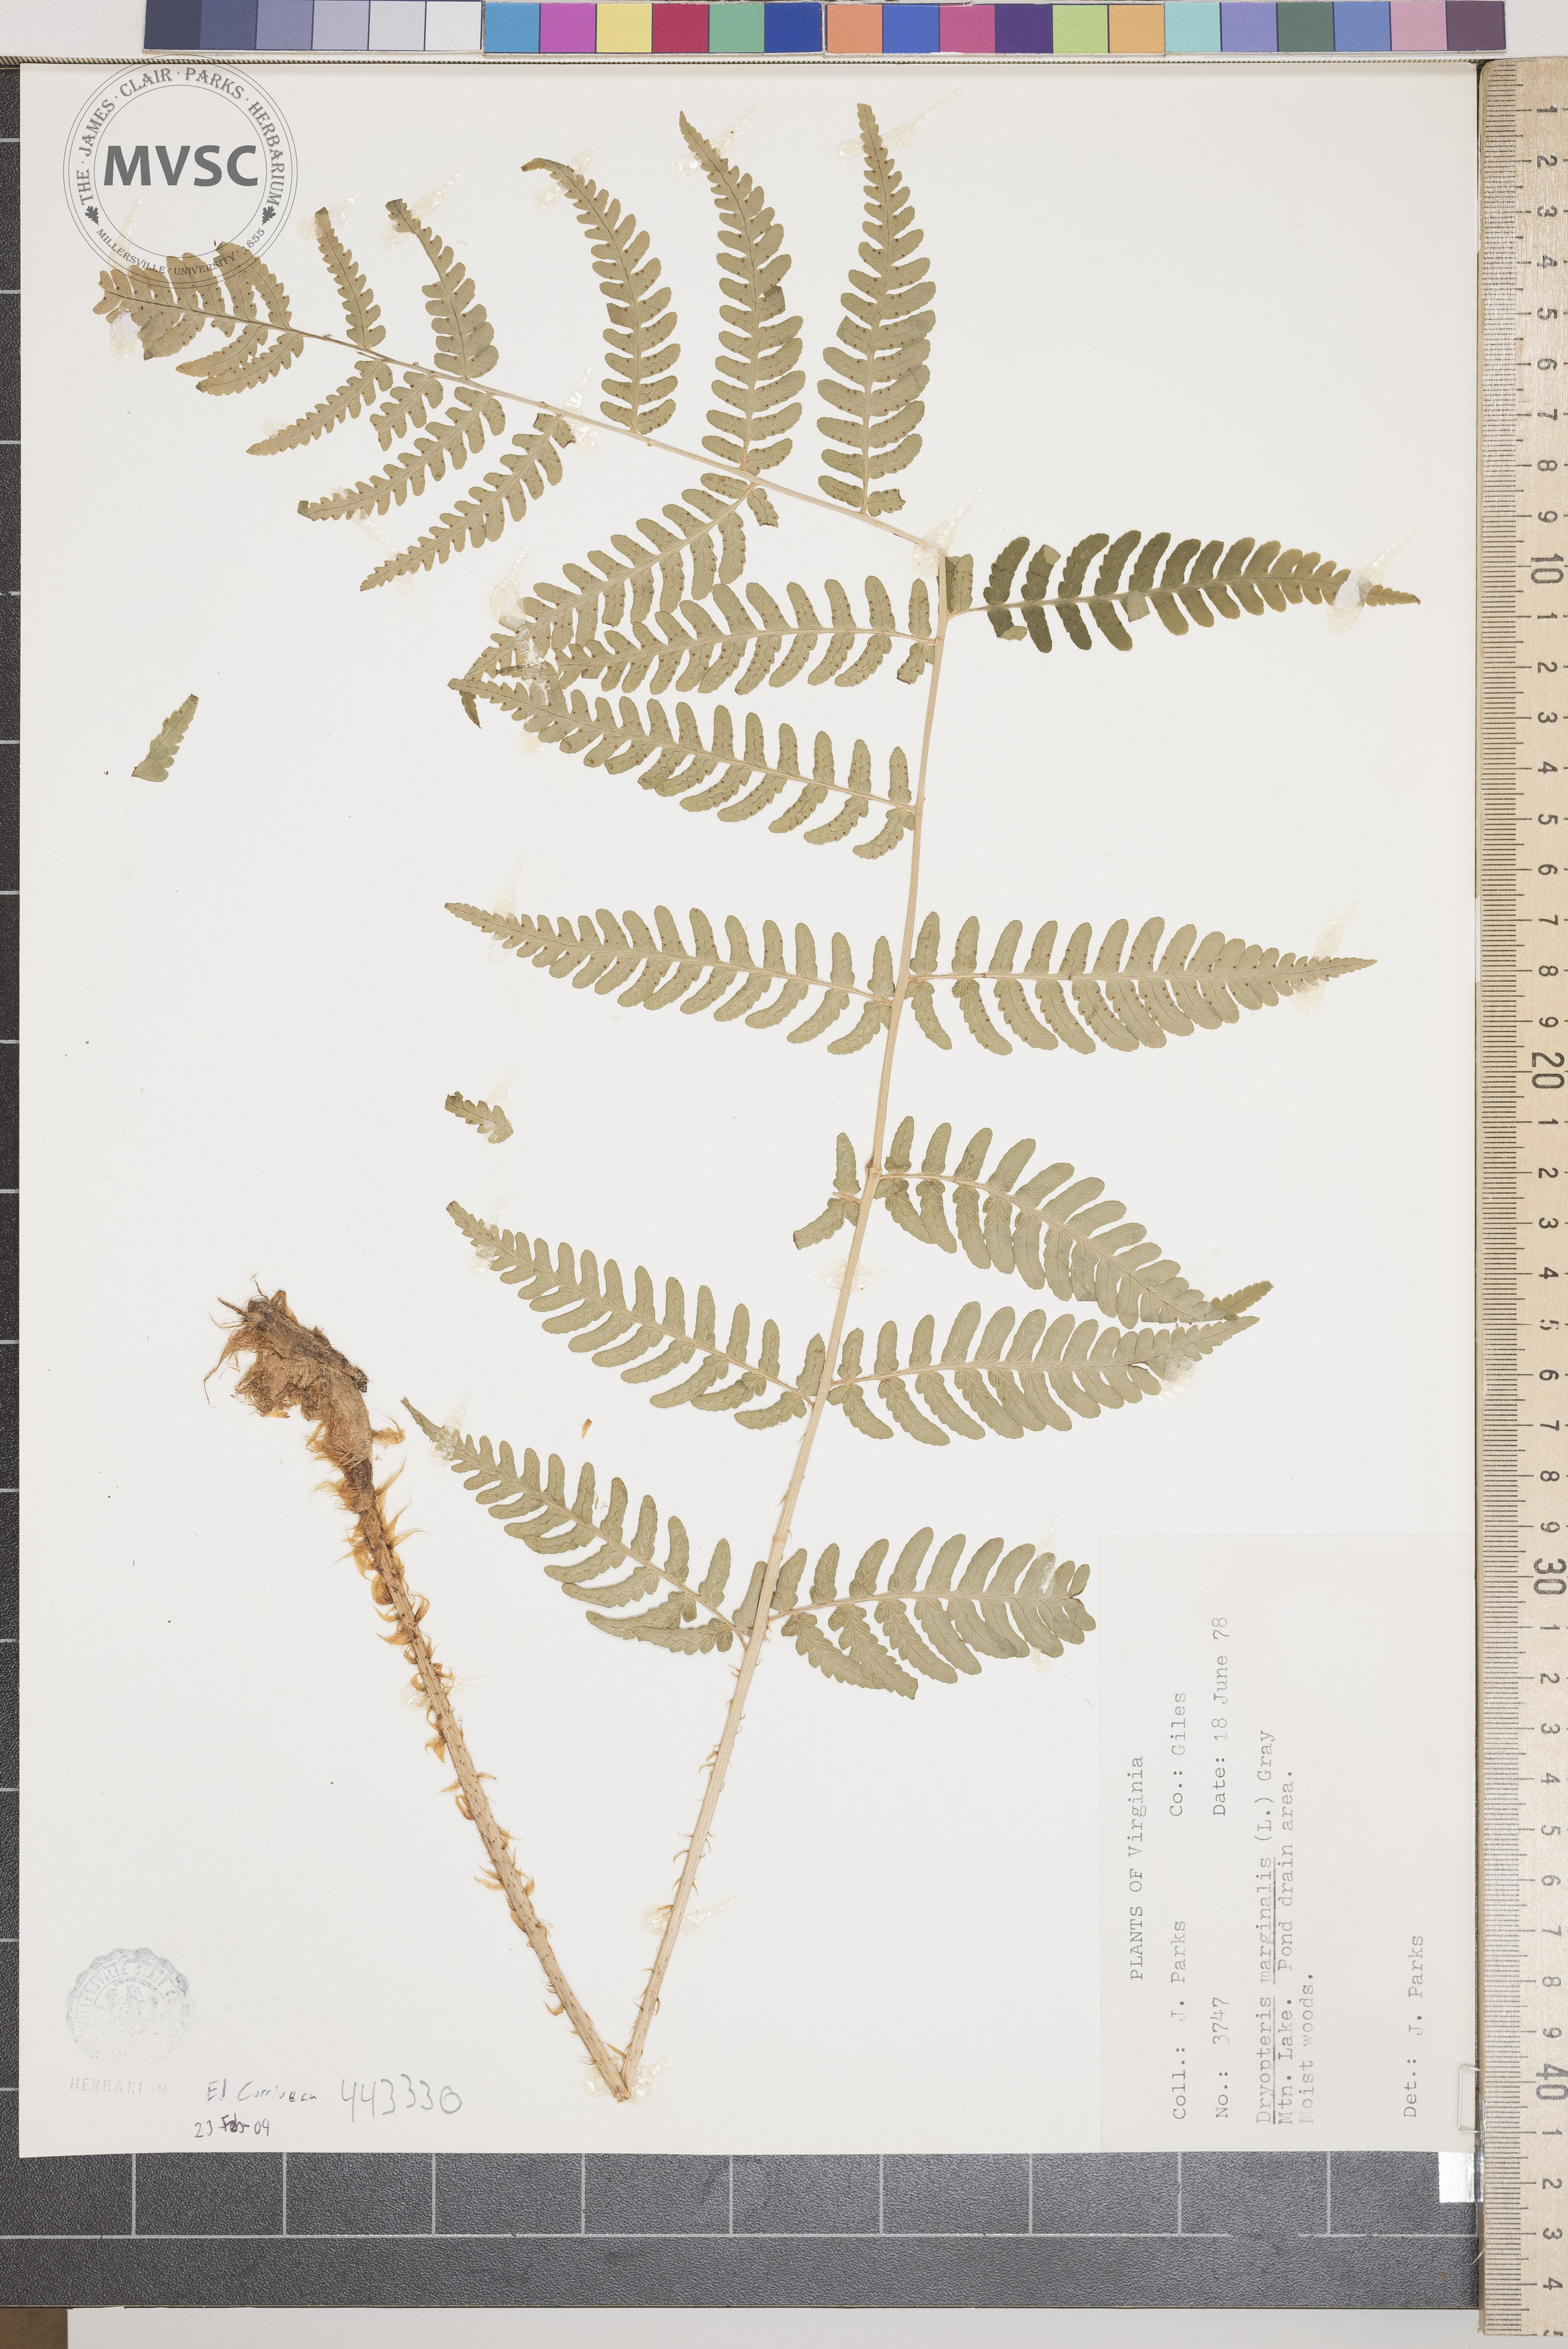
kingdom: Plantae
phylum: Tracheophyta
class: Polypodiopsida
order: Polypodiales
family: Dryopteridaceae
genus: Dryopteris
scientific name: Dryopteris marginalis
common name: Marginal wood fern
